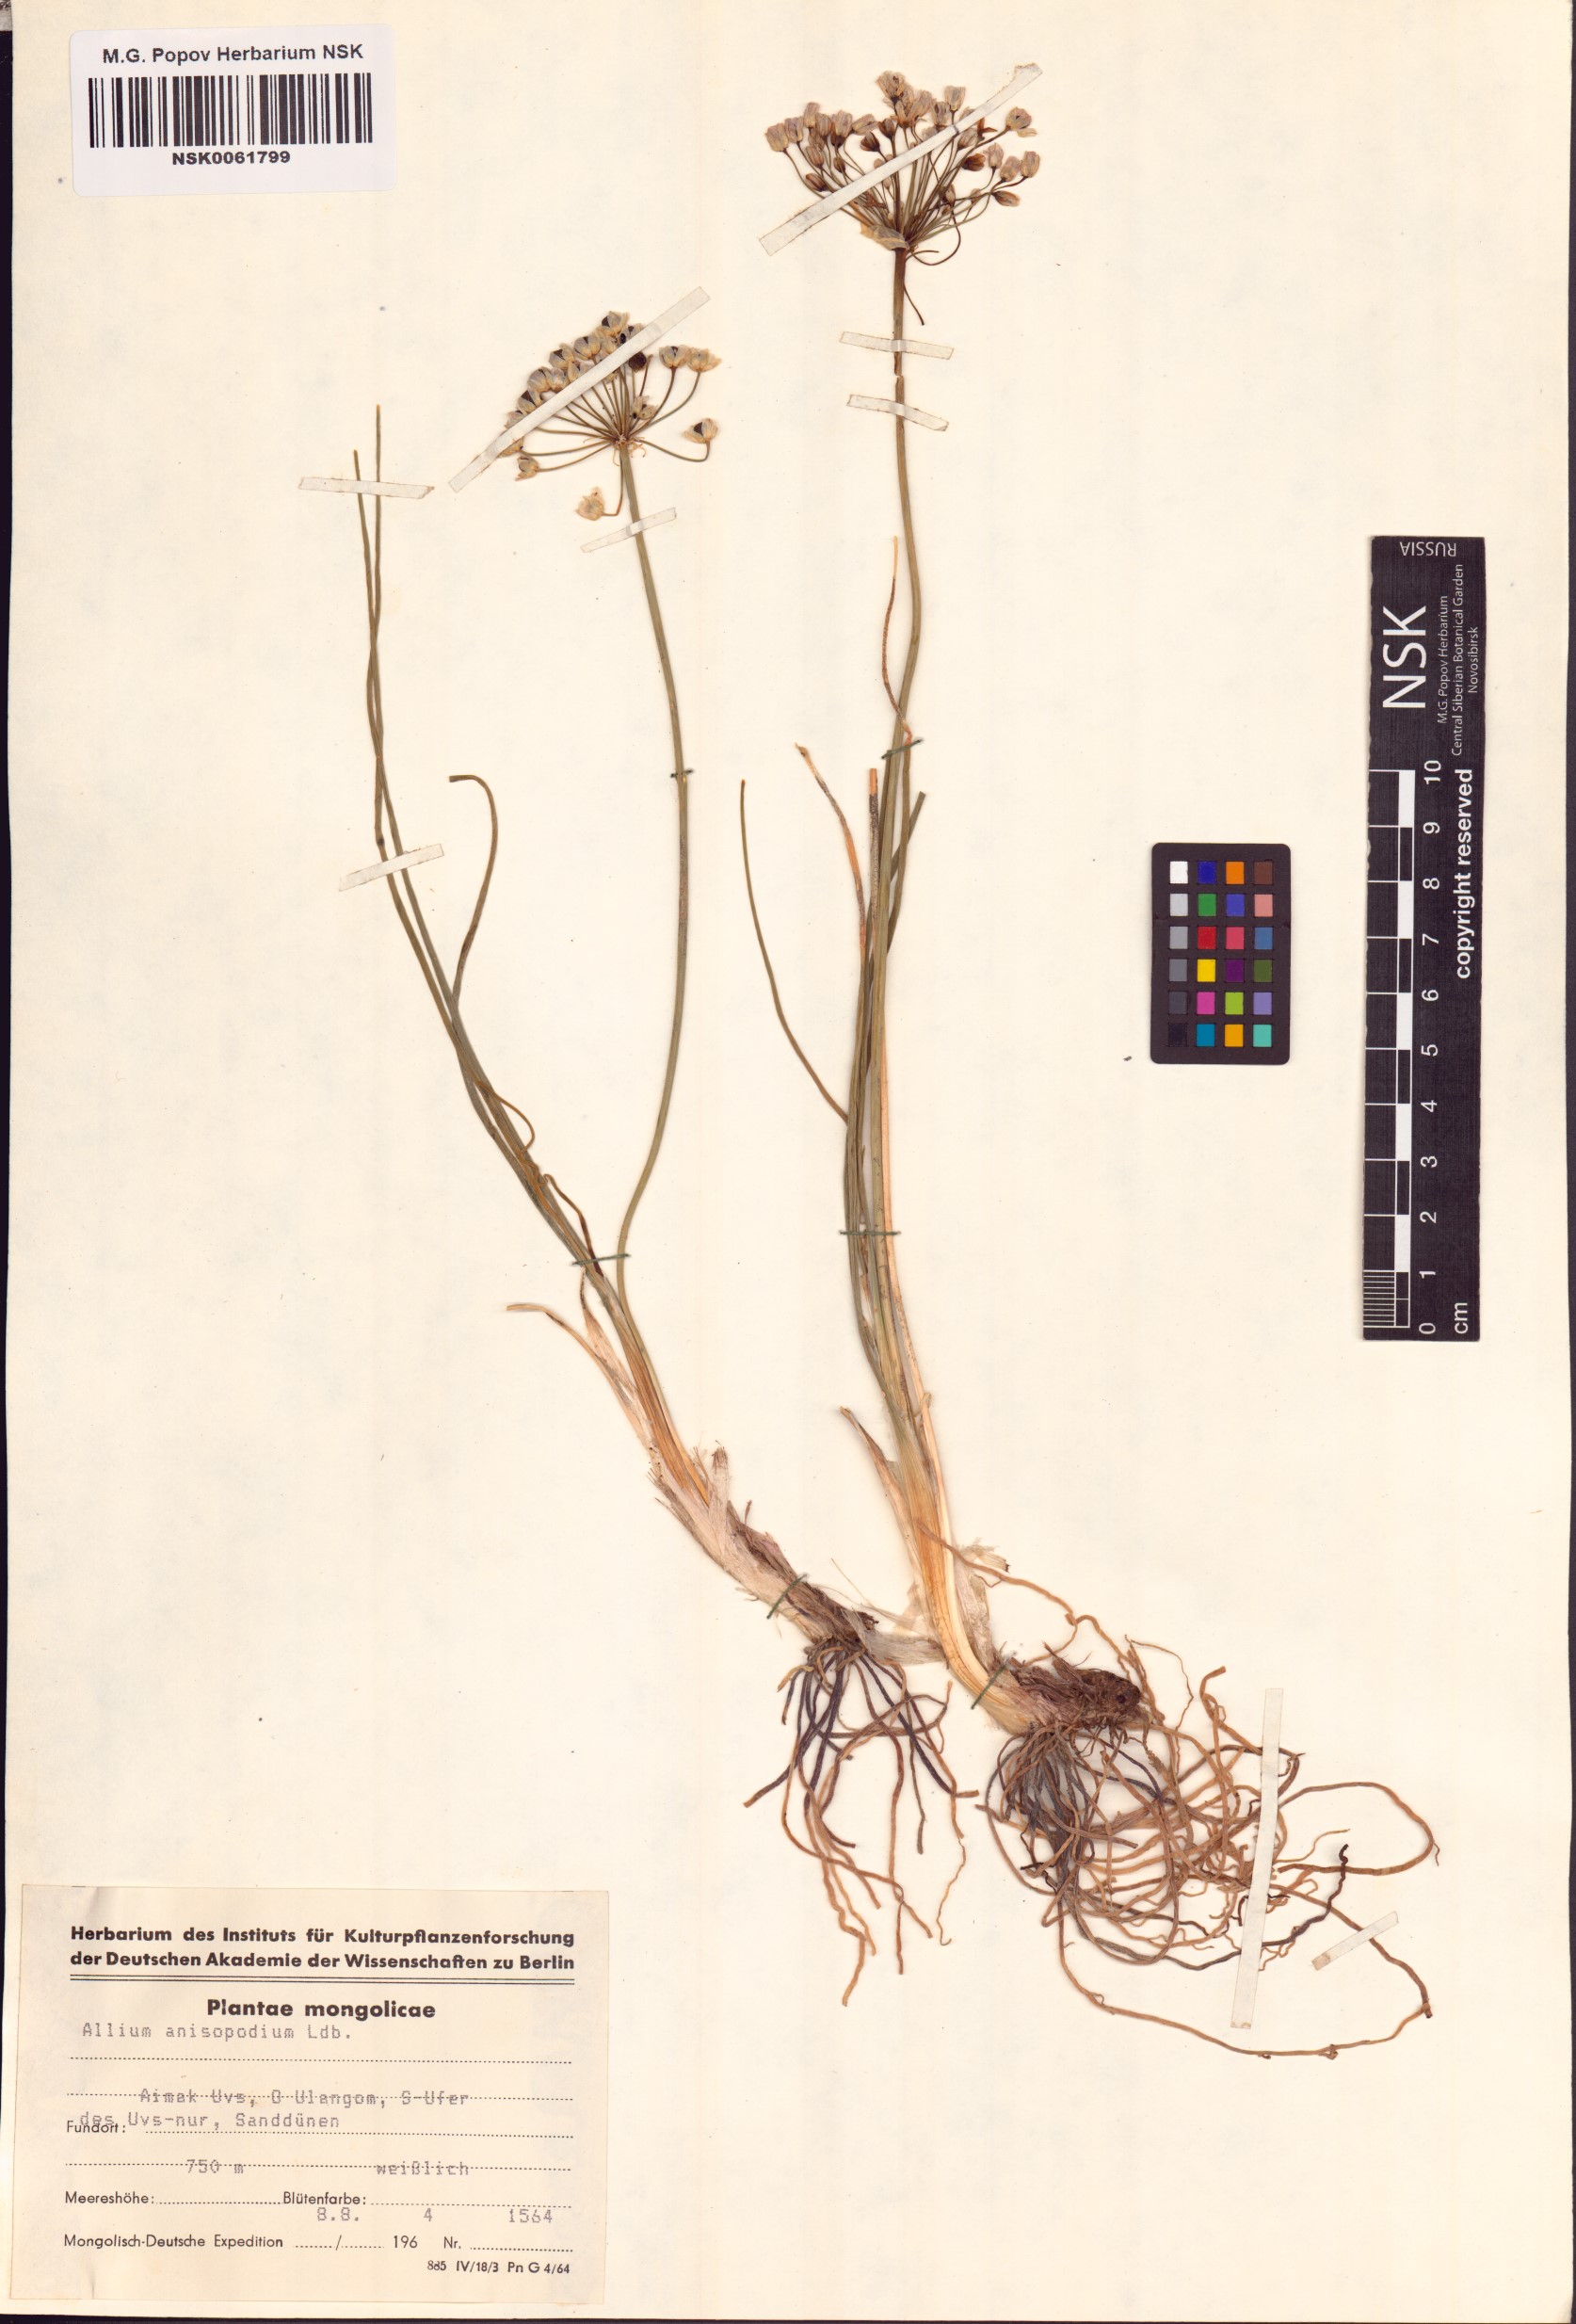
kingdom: Plantae
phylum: Tracheophyta
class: Liliopsida
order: Asparagales
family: Amaryllidaceae
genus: Allium
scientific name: Allium anisopodium
